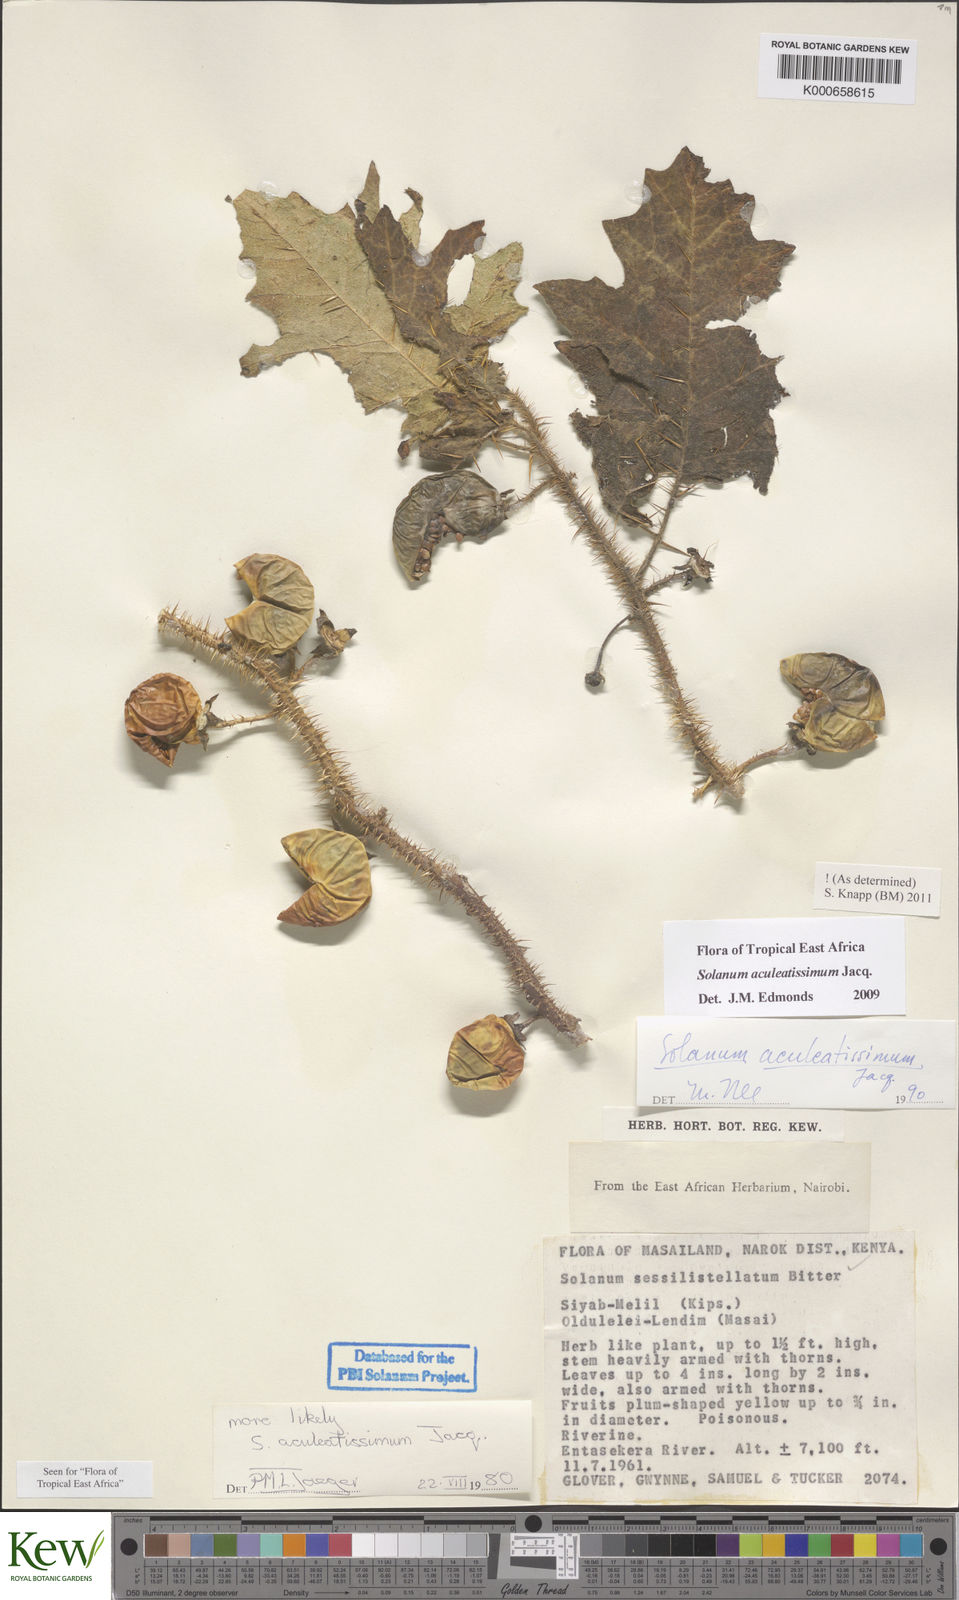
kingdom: Plantae
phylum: Tracheophyta
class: Magnoliopsida
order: Solanales
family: Solanaceae
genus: Solanum
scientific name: Solanum aculeatissimum
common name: Dutch eggplant
